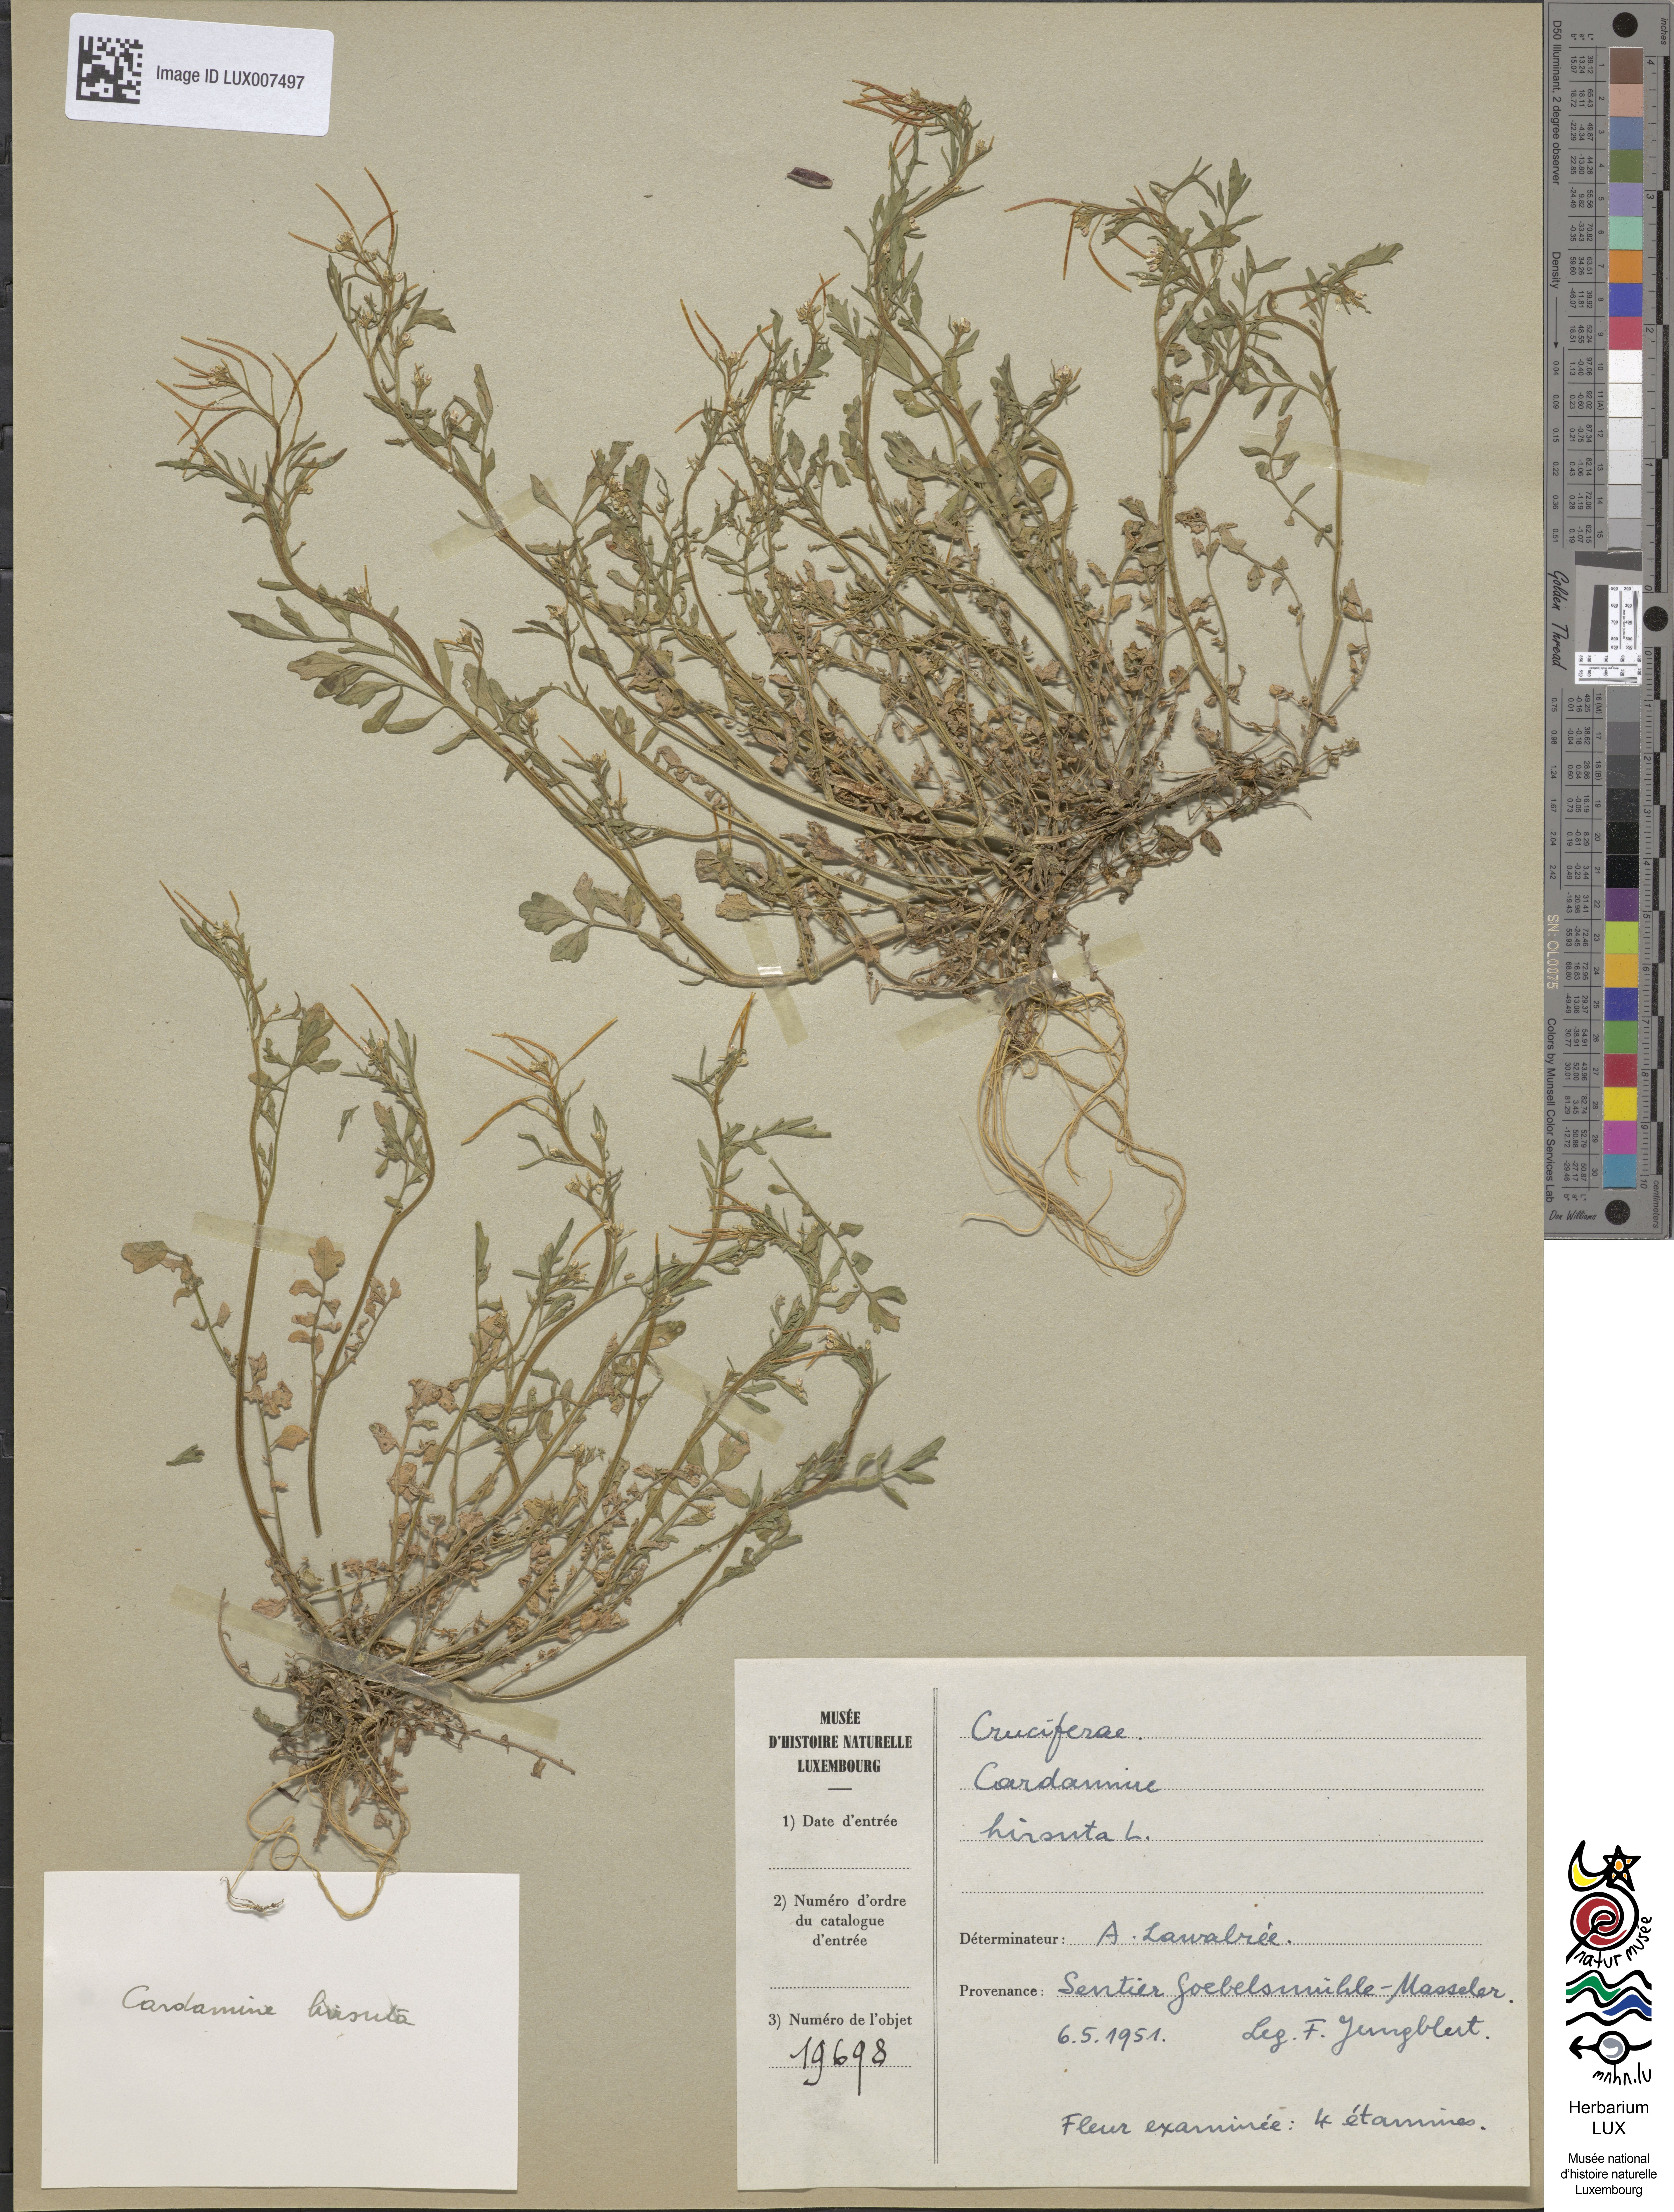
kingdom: Plantae
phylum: Tracheophyta
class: Magnoliopsida
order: Brassicales
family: Brassicaceae
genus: Cardamine
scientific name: Cardamine hirsuta
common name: Hairy bittercress
